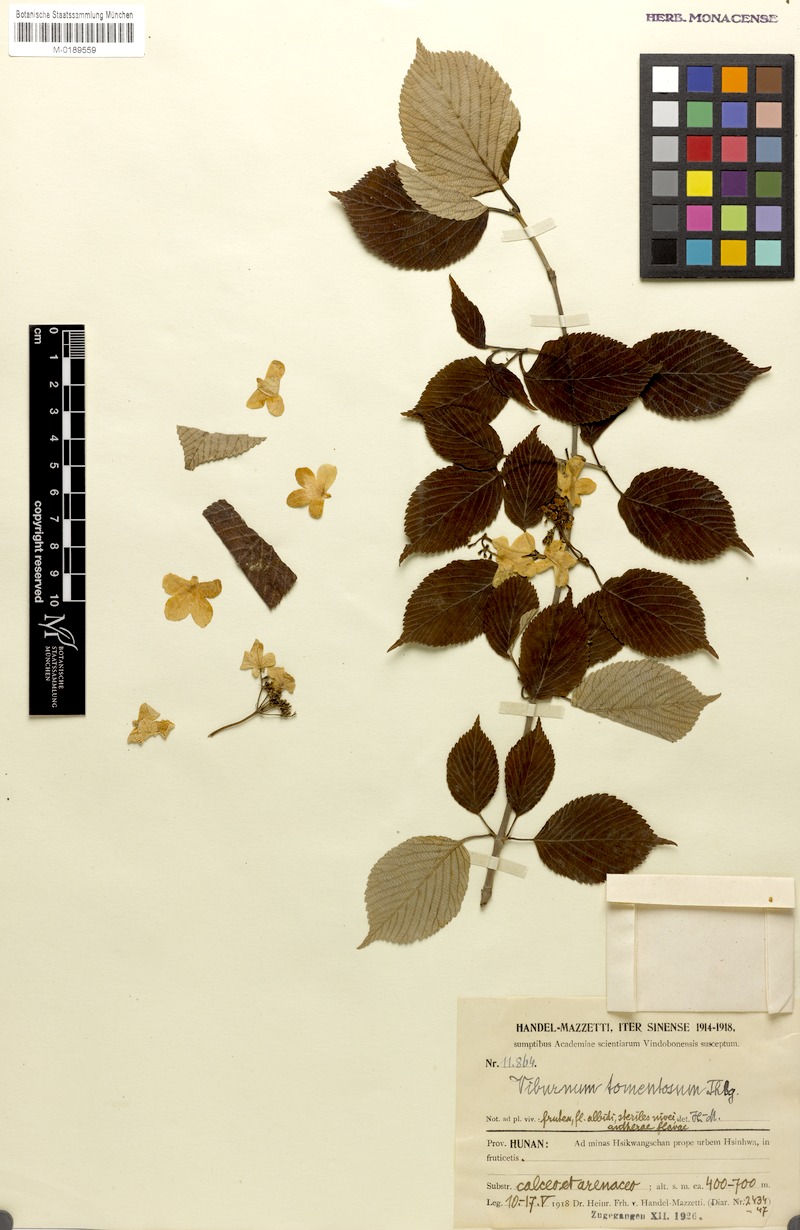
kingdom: Plantae
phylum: Tracheophyta
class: Magnoliopsida
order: Dipsacales
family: Viburnaceae
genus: Viburnum
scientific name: Viburnum plicatum
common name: Japanese snowball
